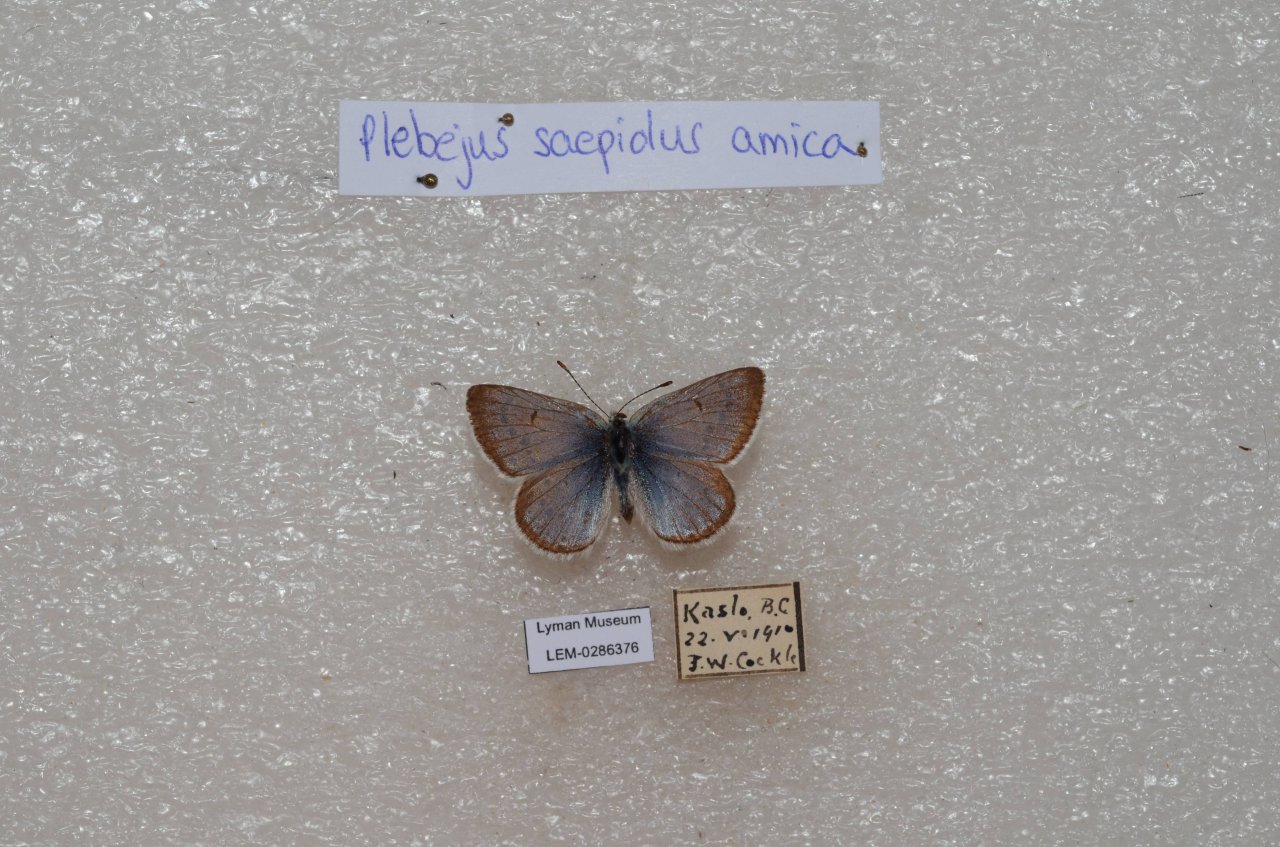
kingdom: Animalia
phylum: Arthropoda
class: Insecta
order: Lepidoptera
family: Lycaenidae
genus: Plebejus
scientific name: Plebejus saepiolus
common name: Greenish Blue
